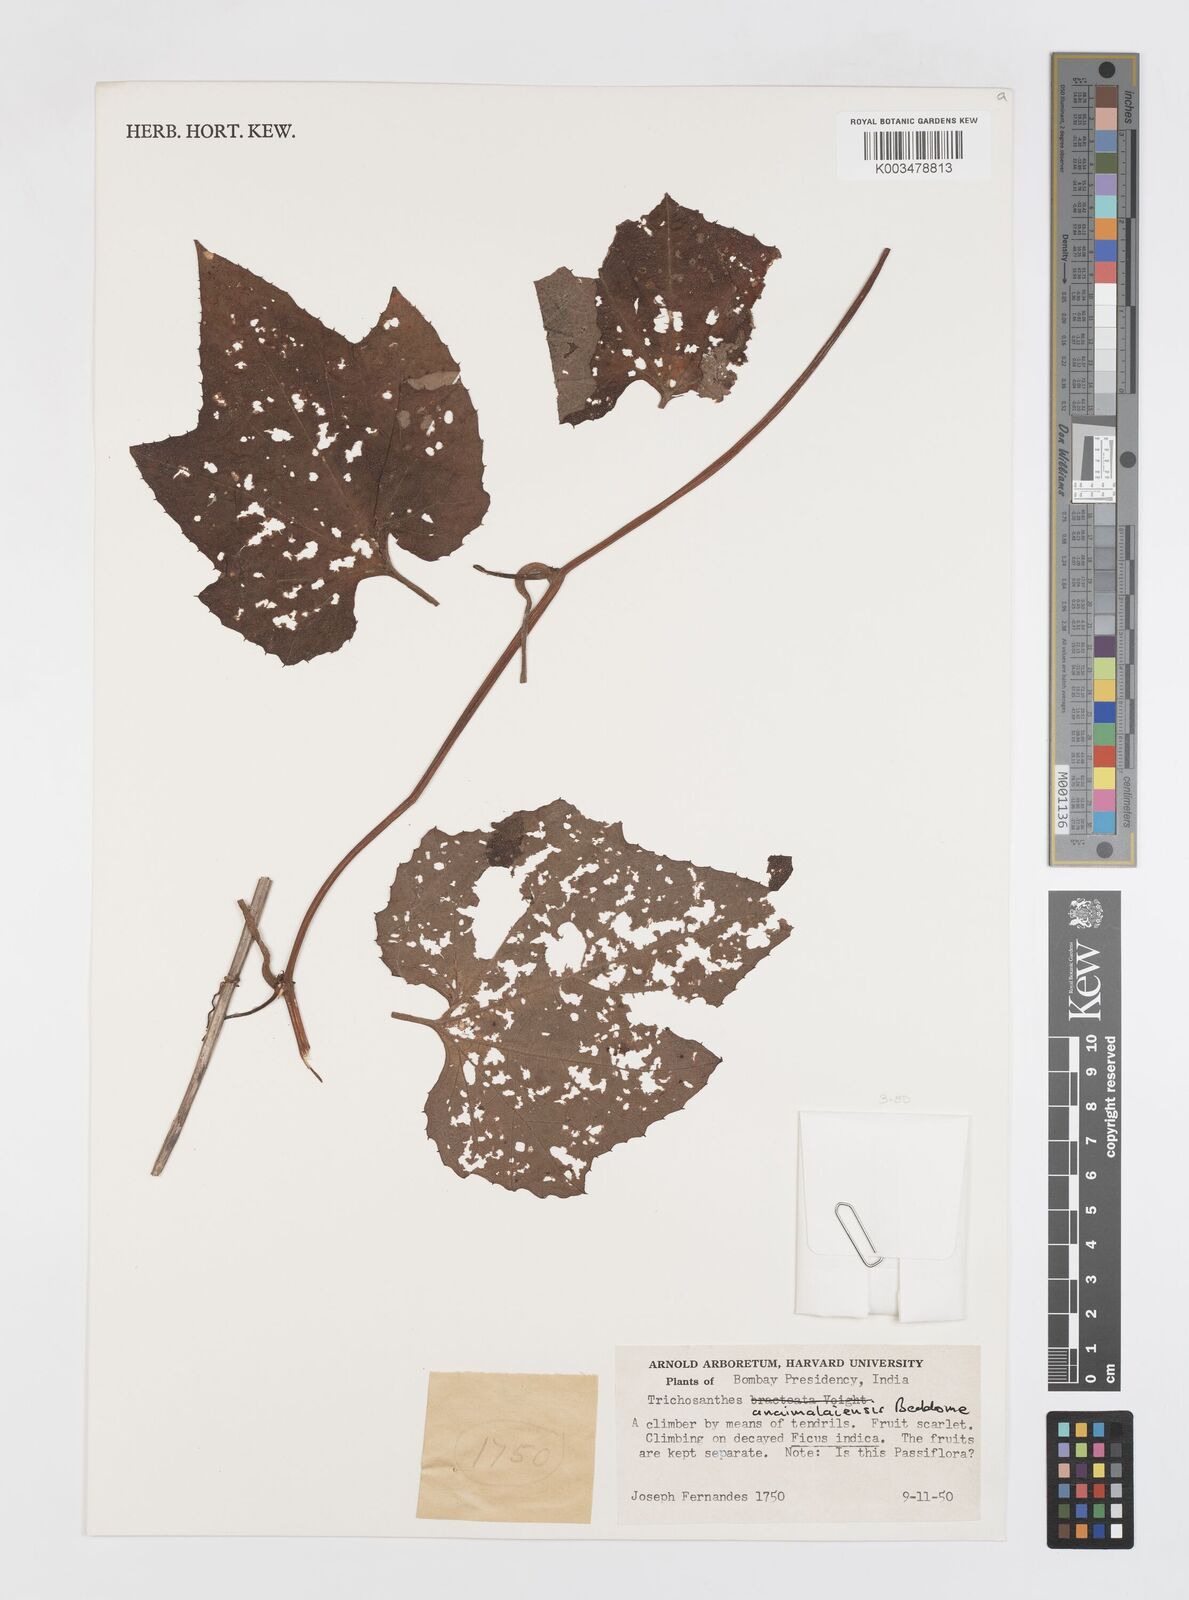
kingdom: Plantae
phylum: Tracheophyta
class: Magnoliopsida
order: Cucurbitales
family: Cucurbitaceae
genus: Trichosanthes
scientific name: Trichosanthes anaimalaiensis
